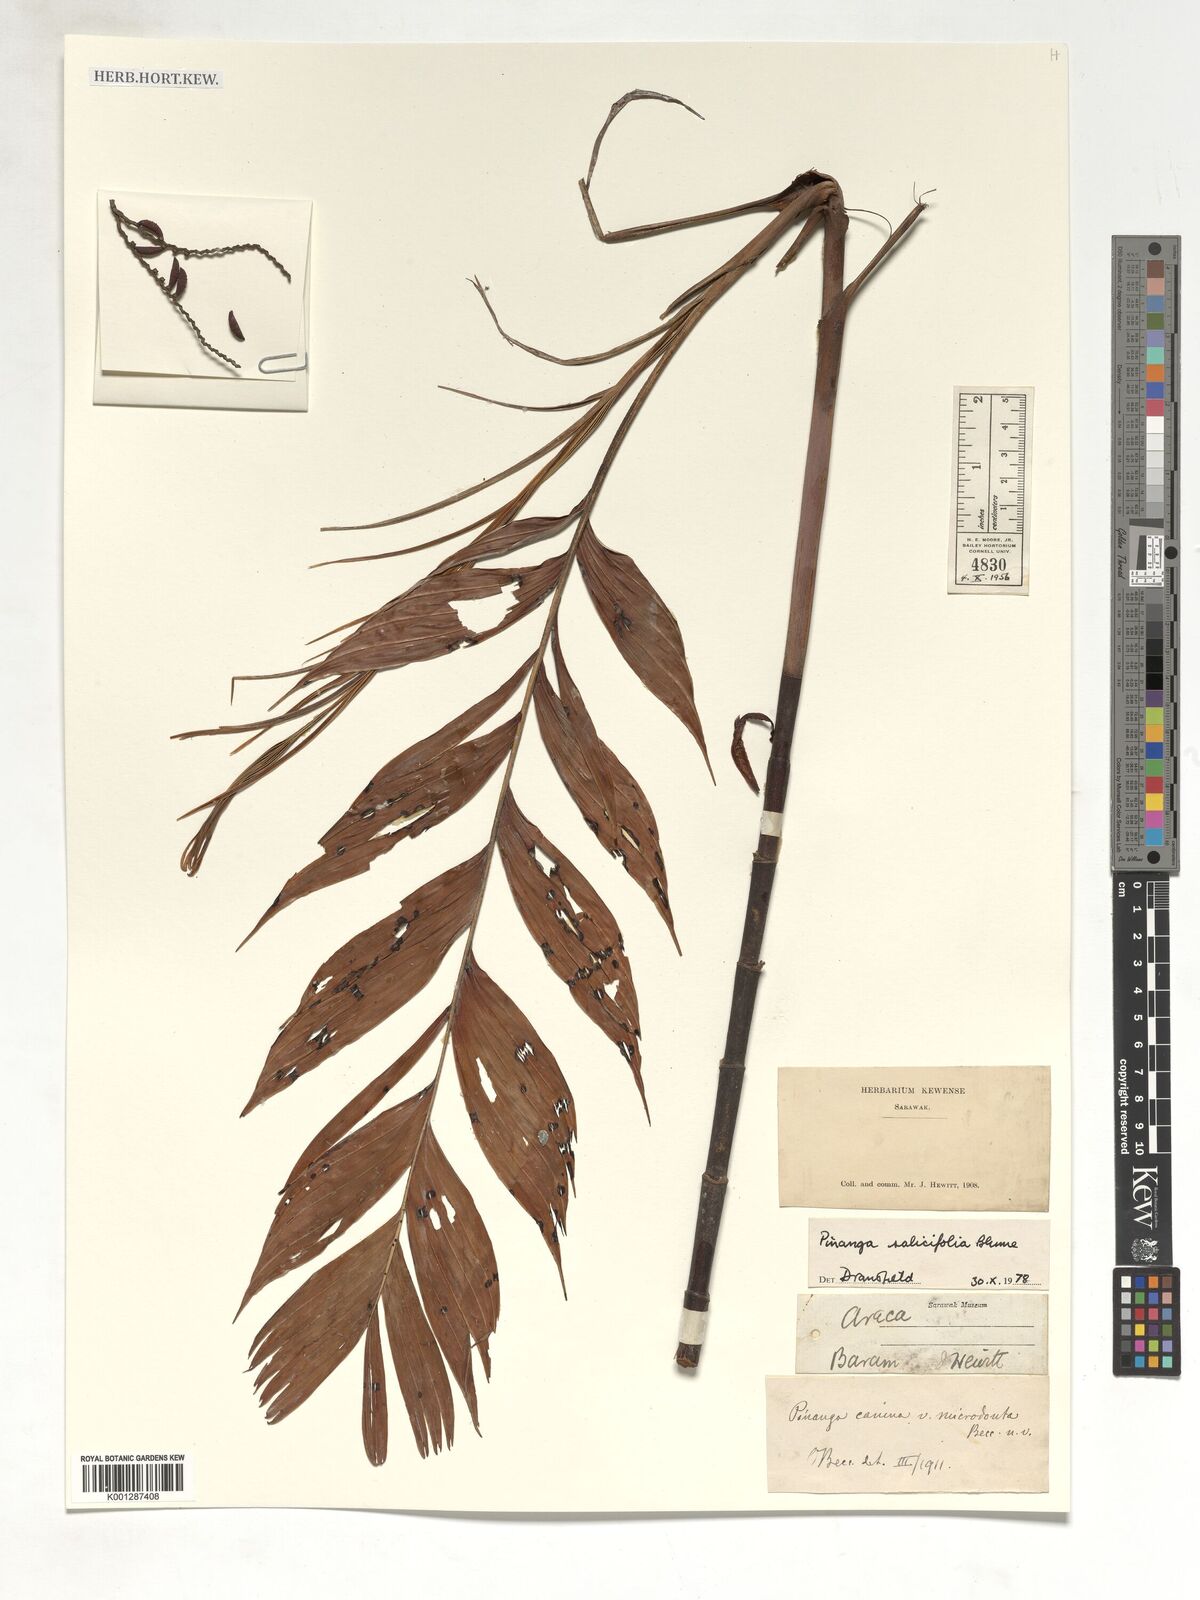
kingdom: Plantae
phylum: Tracheophyta
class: Liliopsida
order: Arecales
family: Arecaceae
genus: Pinanga
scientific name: Pinanga salicifolia
